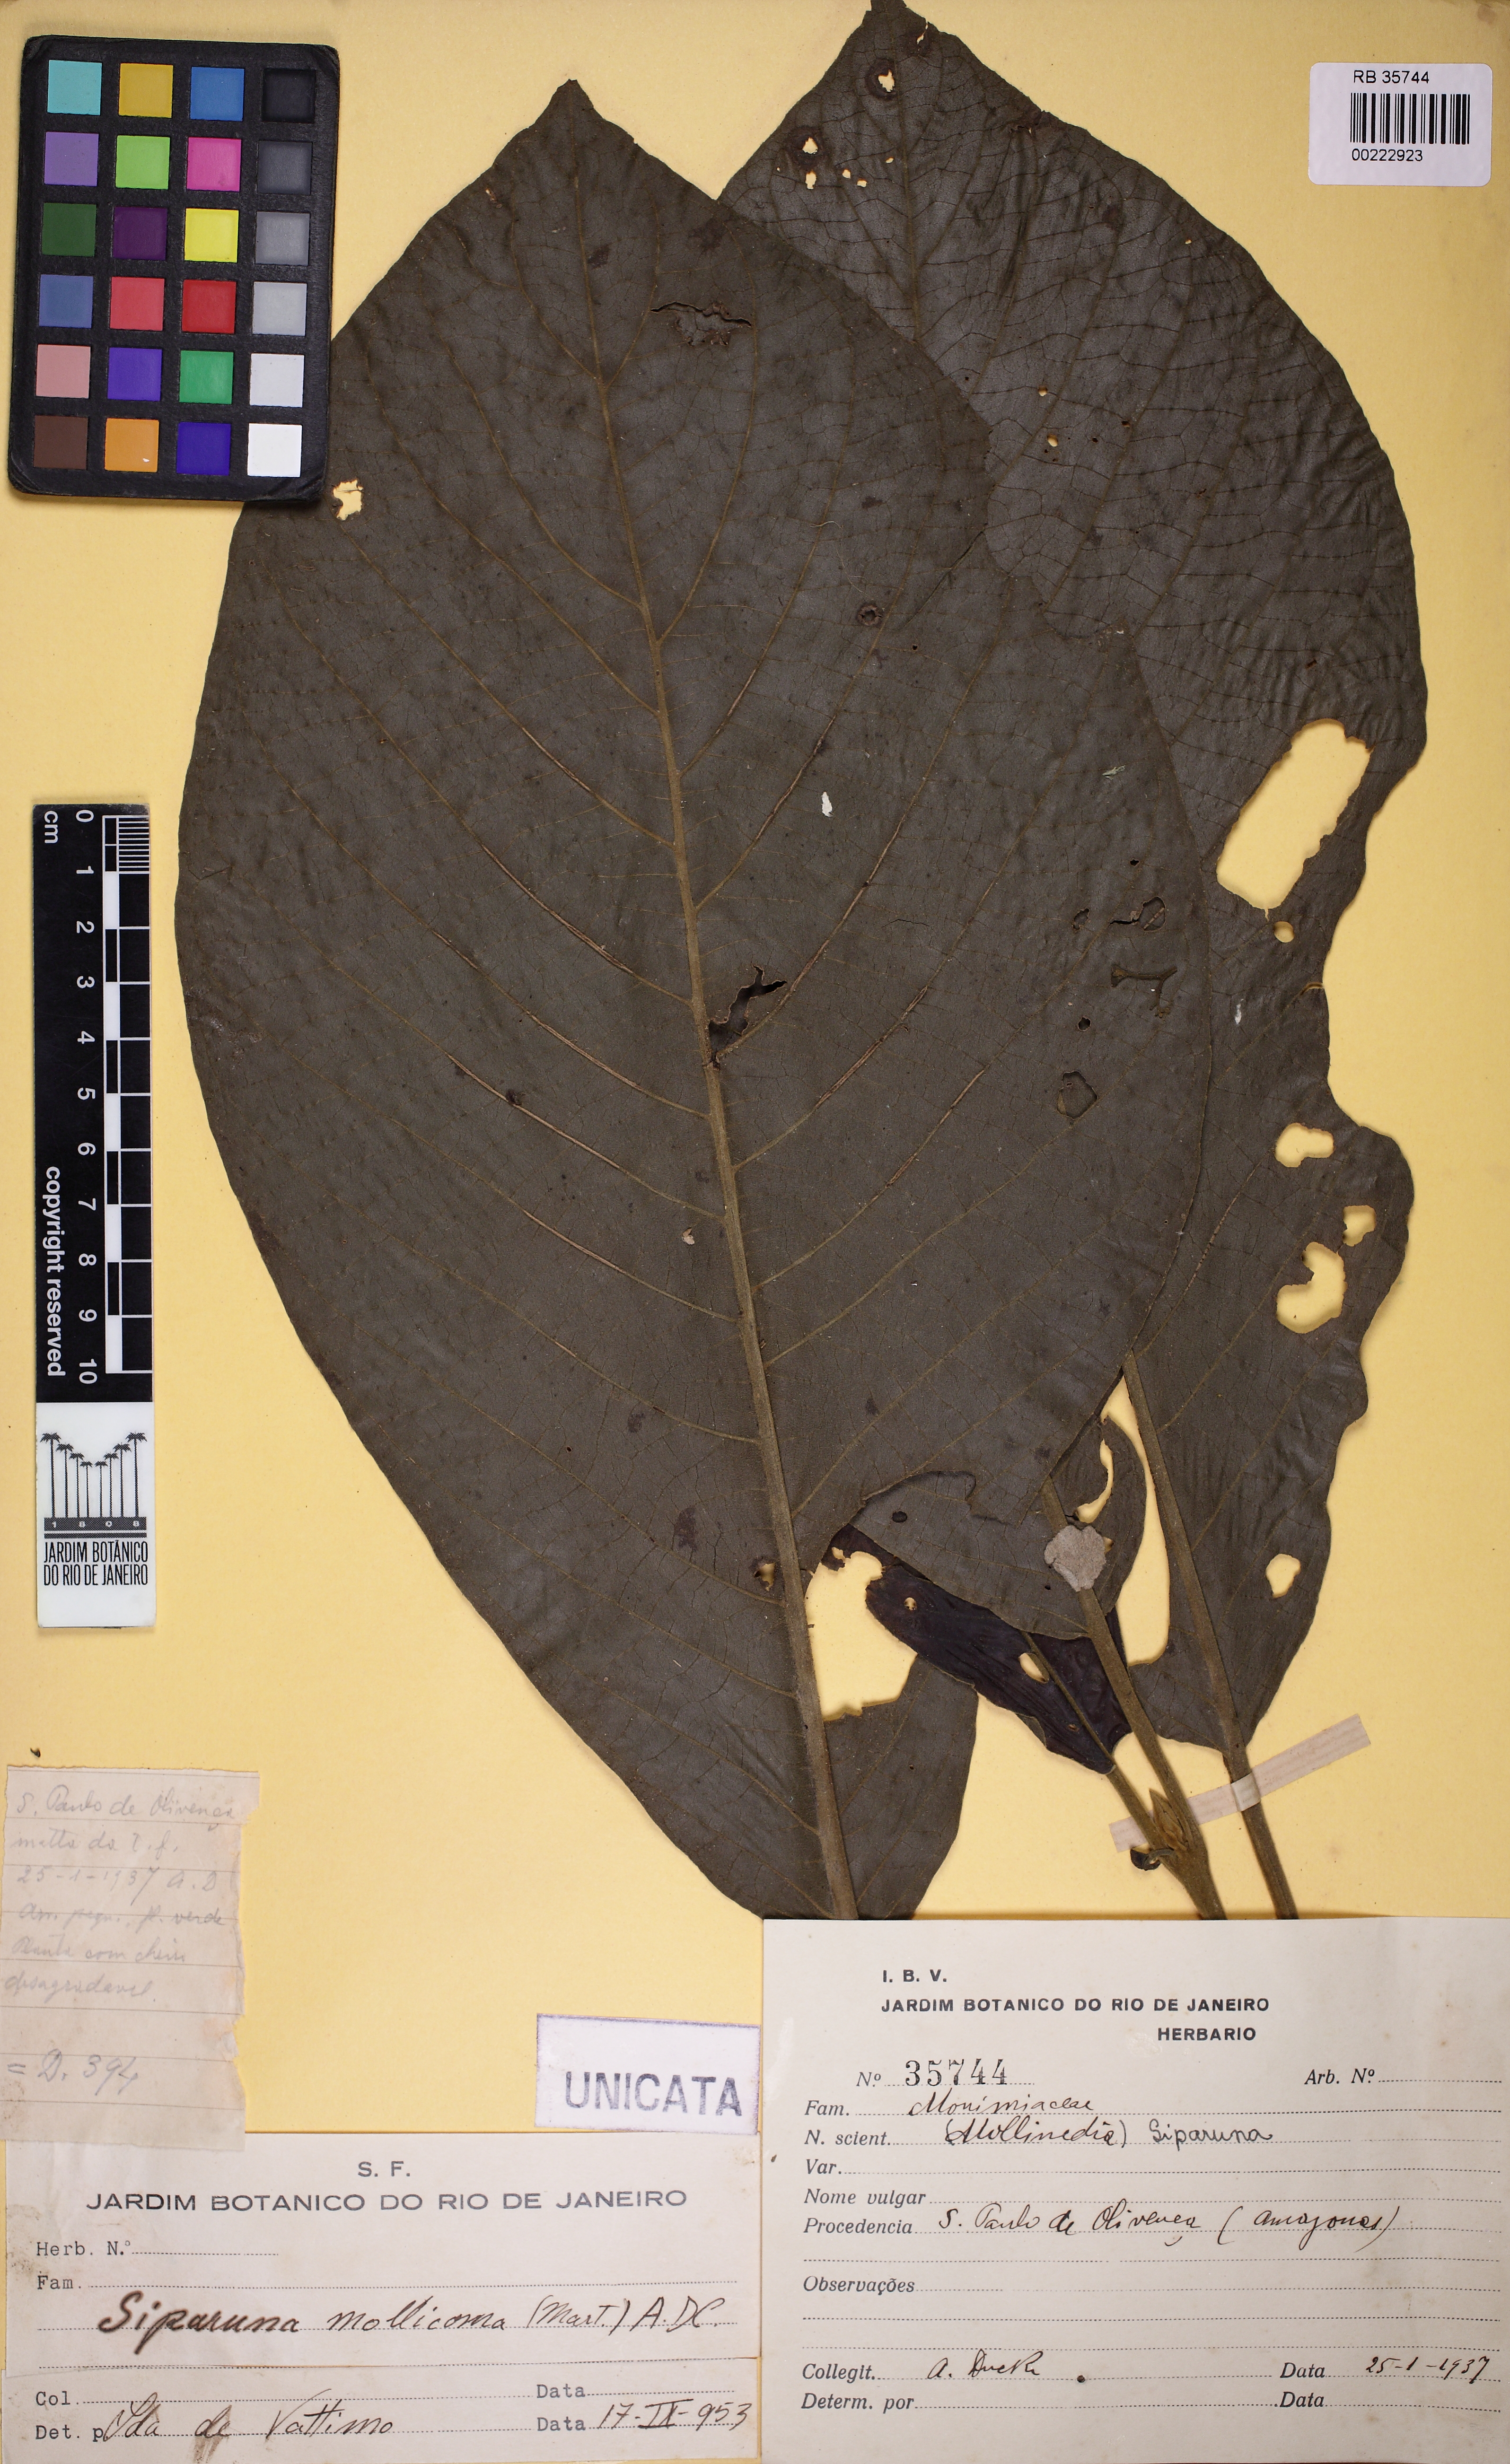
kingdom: Plantae
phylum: Tracheophyta
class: Magnoliopsida
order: Laurales
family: Siparunaceae
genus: Siparuna
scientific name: Siparuna sessiliflora
